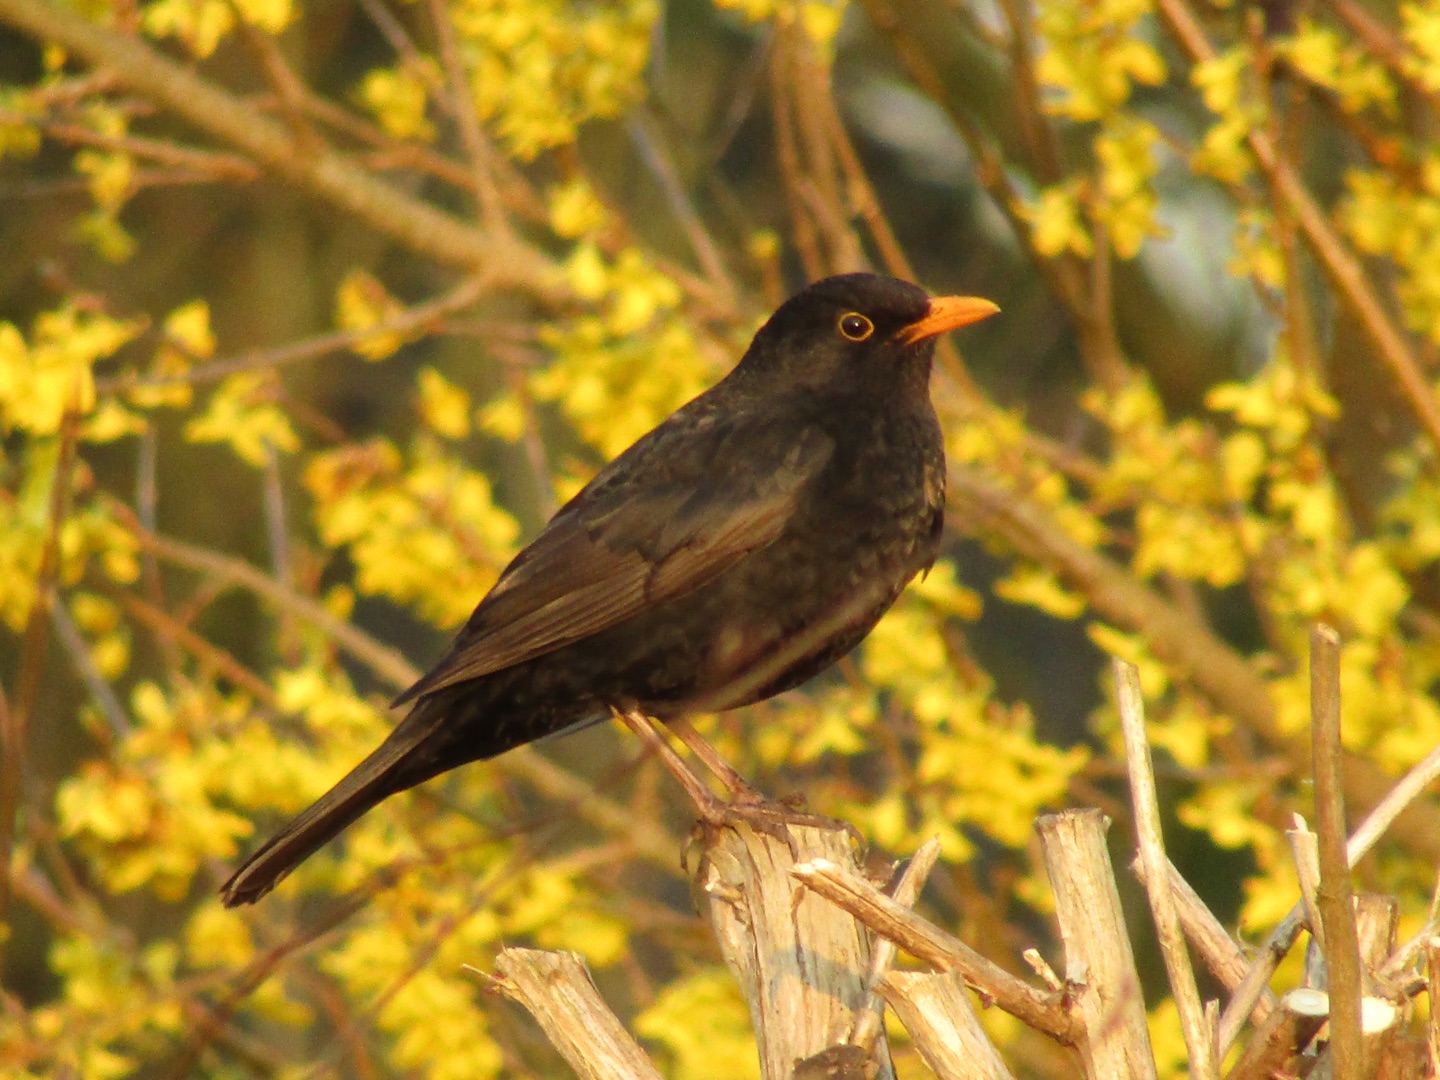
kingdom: Animalia
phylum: Chordata
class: Aves
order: Passeriformes
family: Turdidae
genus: Turdus
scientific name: Turdus merula
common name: Solsort
